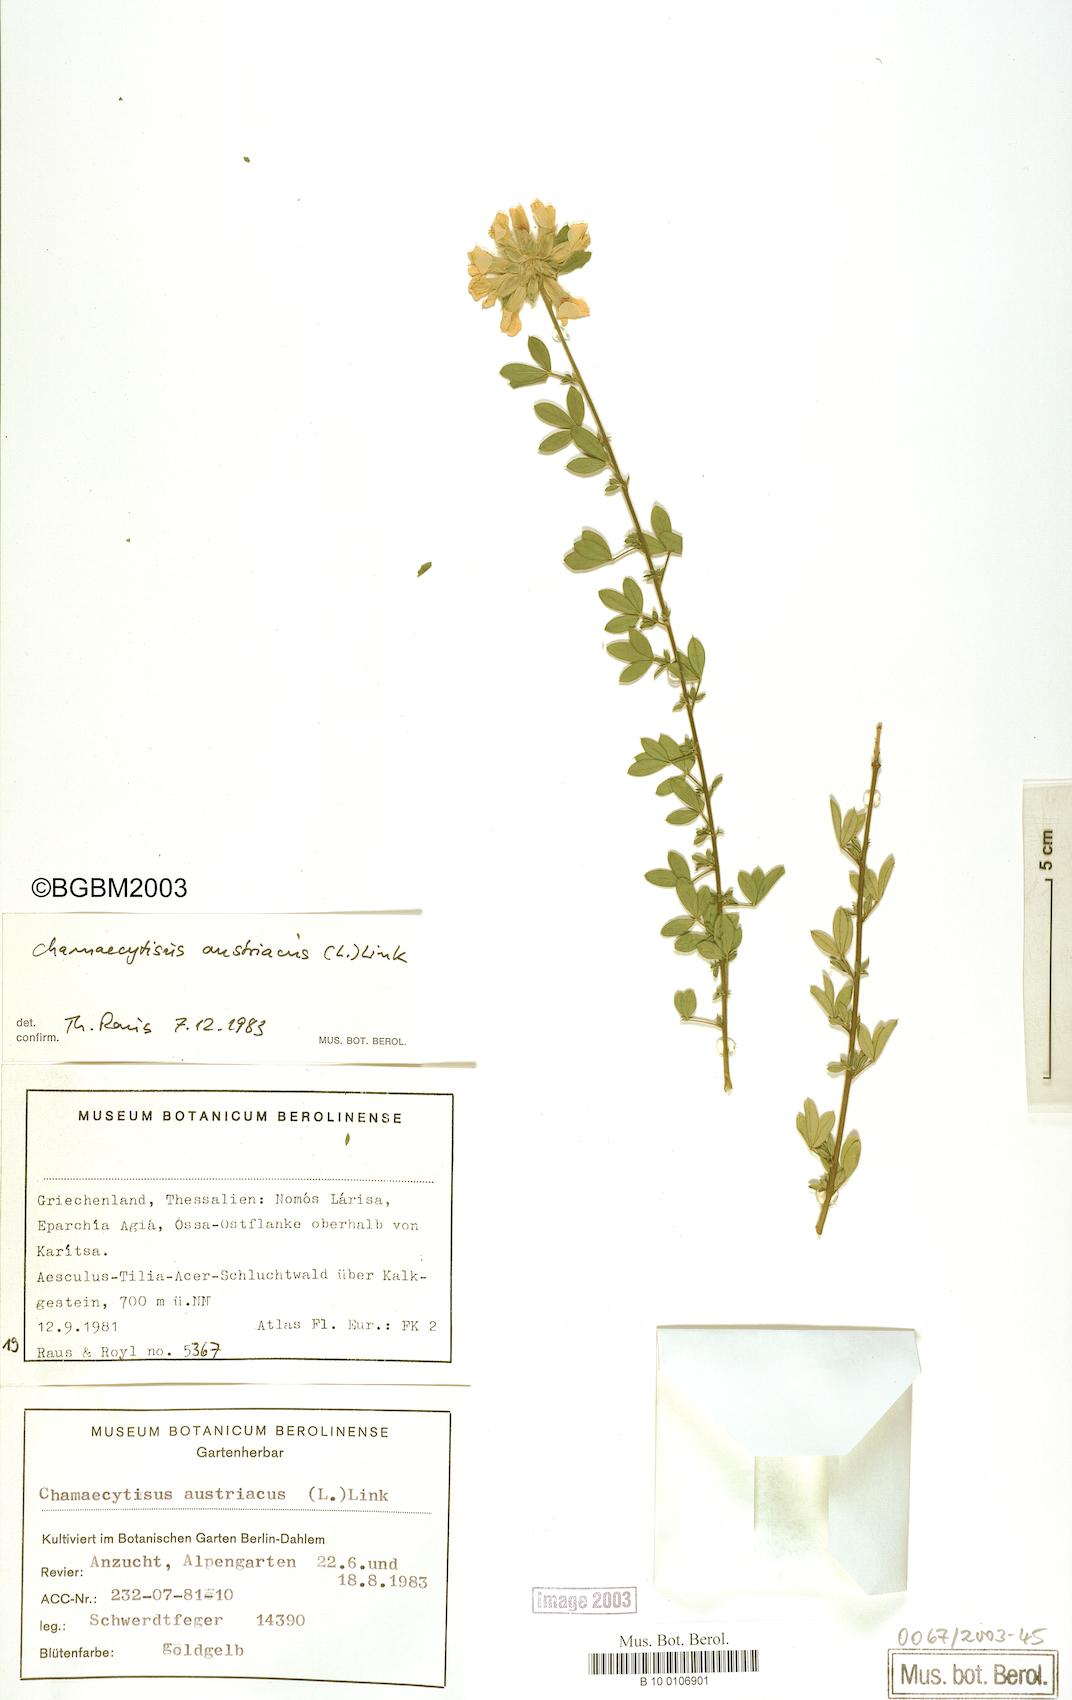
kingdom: Plantae
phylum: Tracheophyta
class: Magnoliopsida
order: Fabales
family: Fabaceae
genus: Chamaecytisus
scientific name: Chamaecytisus austriacus
